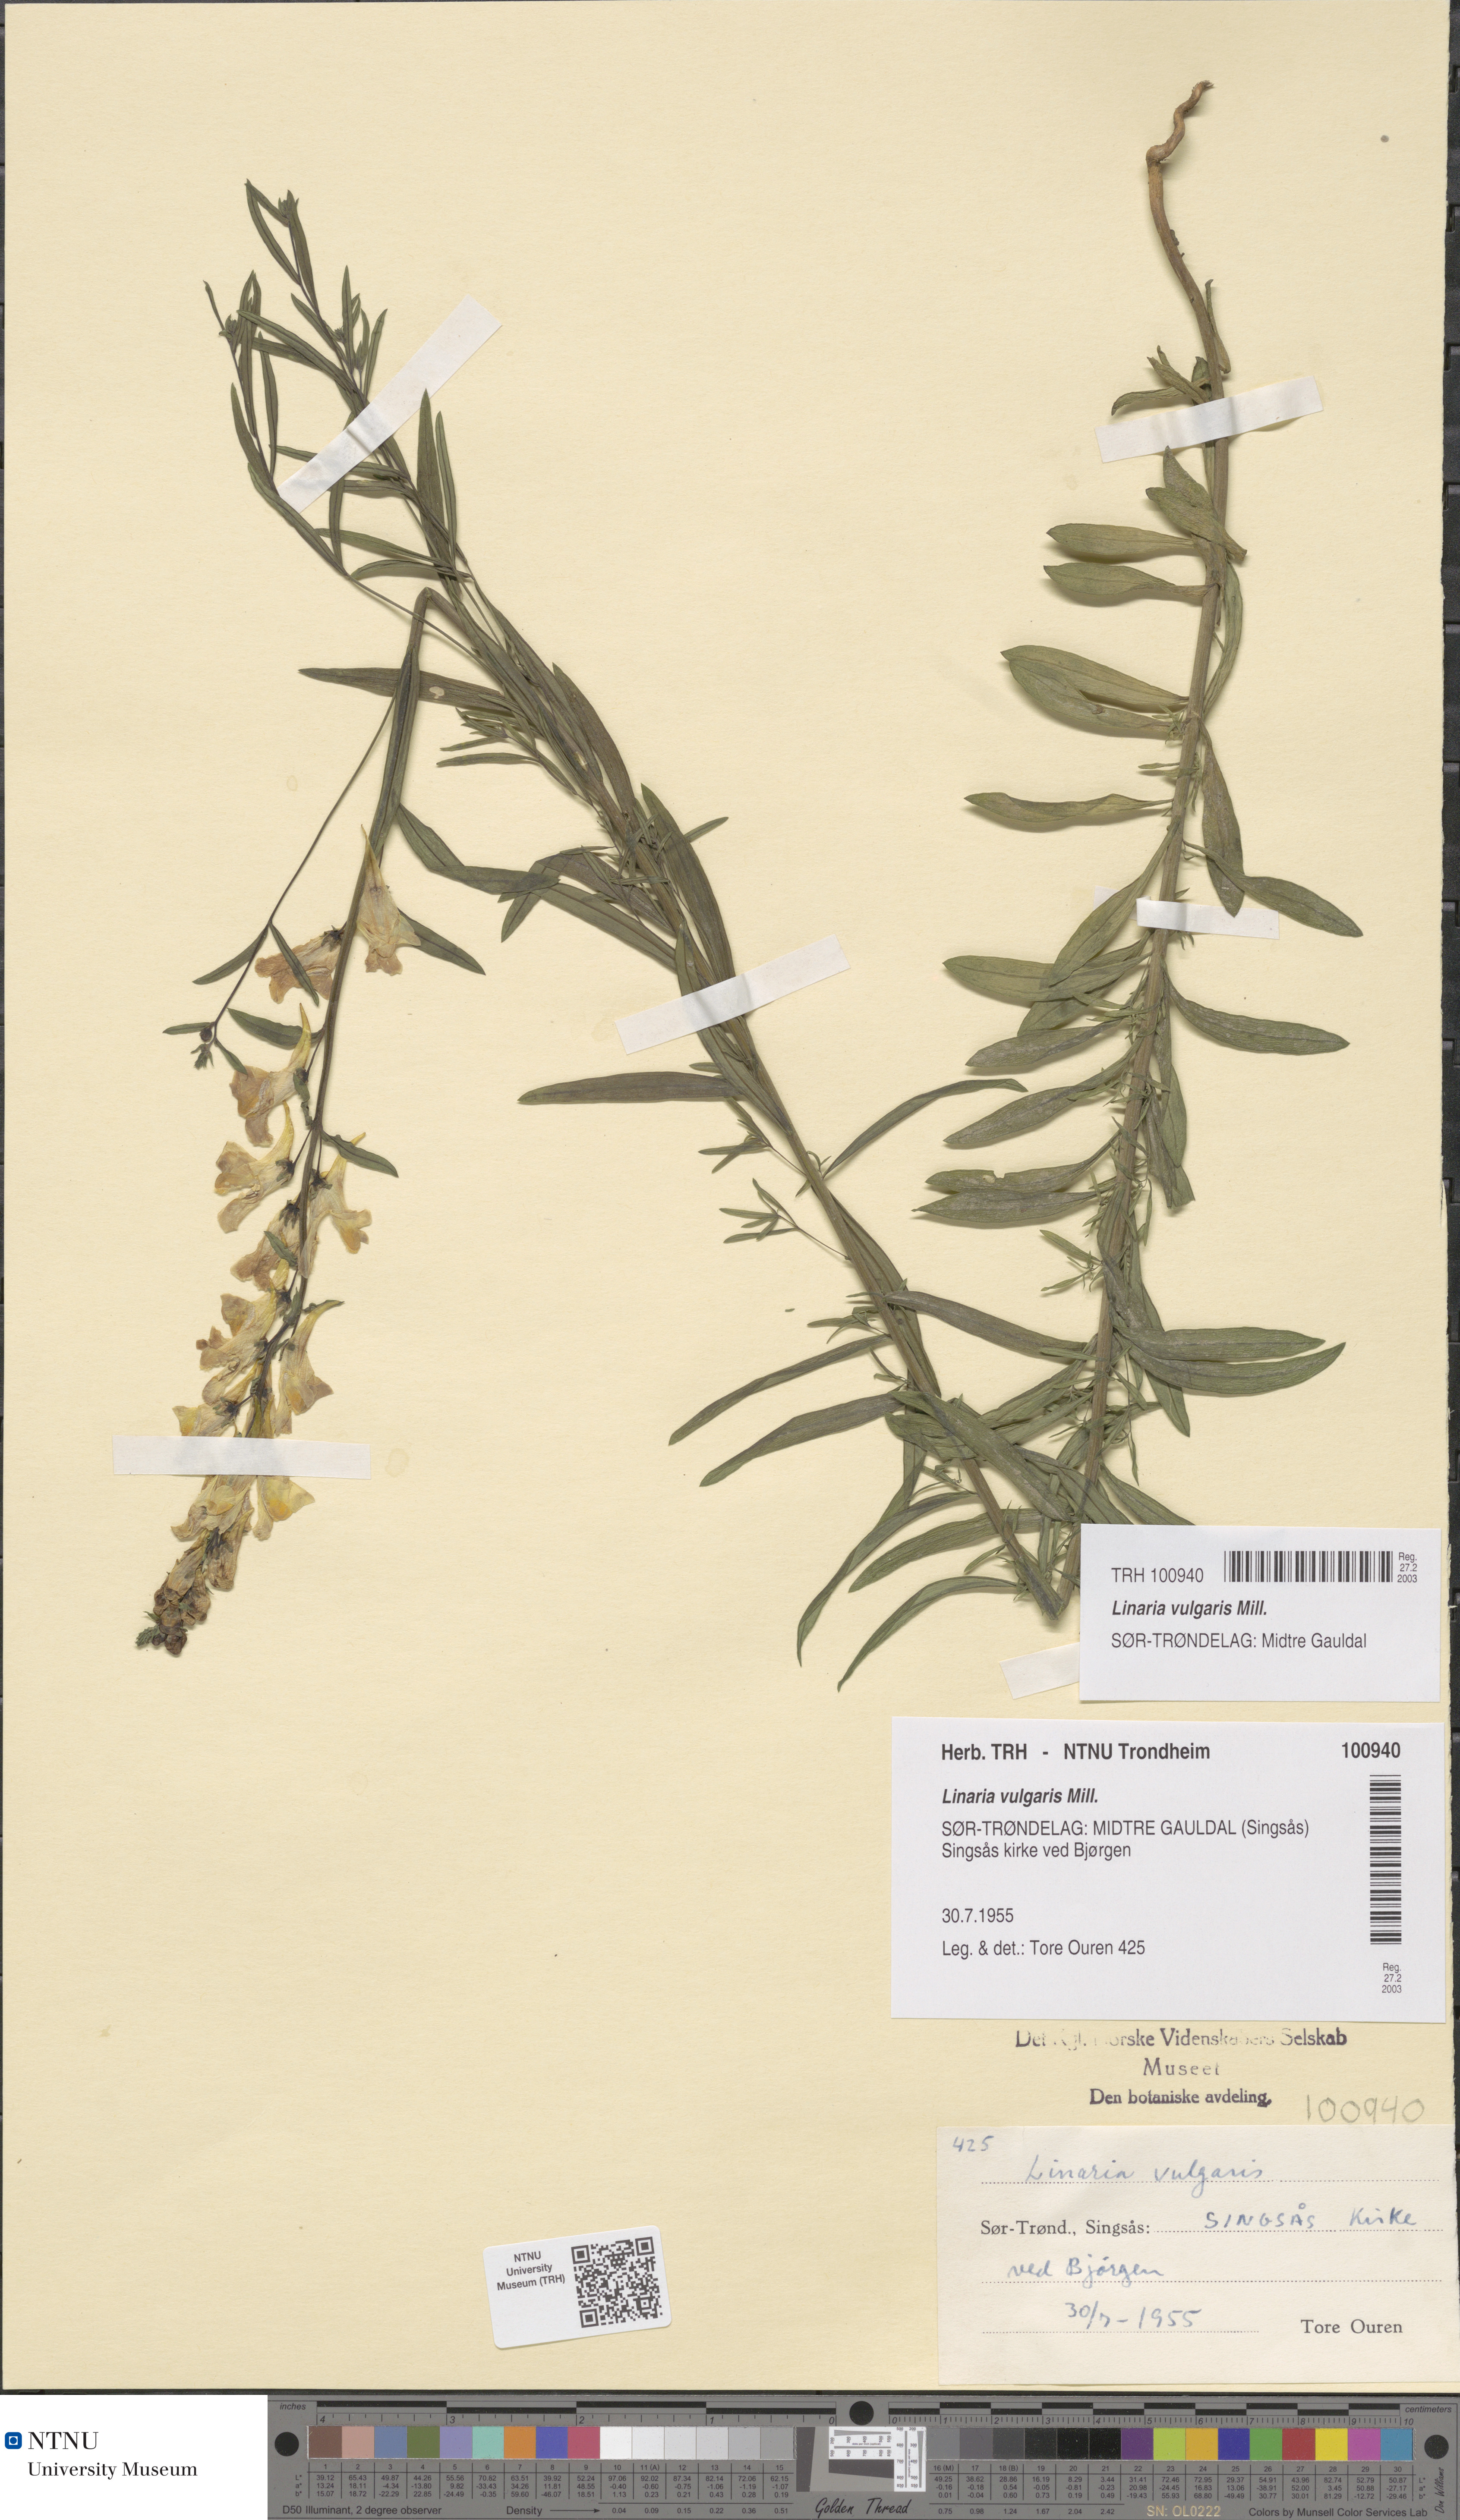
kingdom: Plantae
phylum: Tracheophyta
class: Magnoliopsida
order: Lamiales
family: Plantaginaceae
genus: Linaria
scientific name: Linaria vulgaris
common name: Butter and eggs
